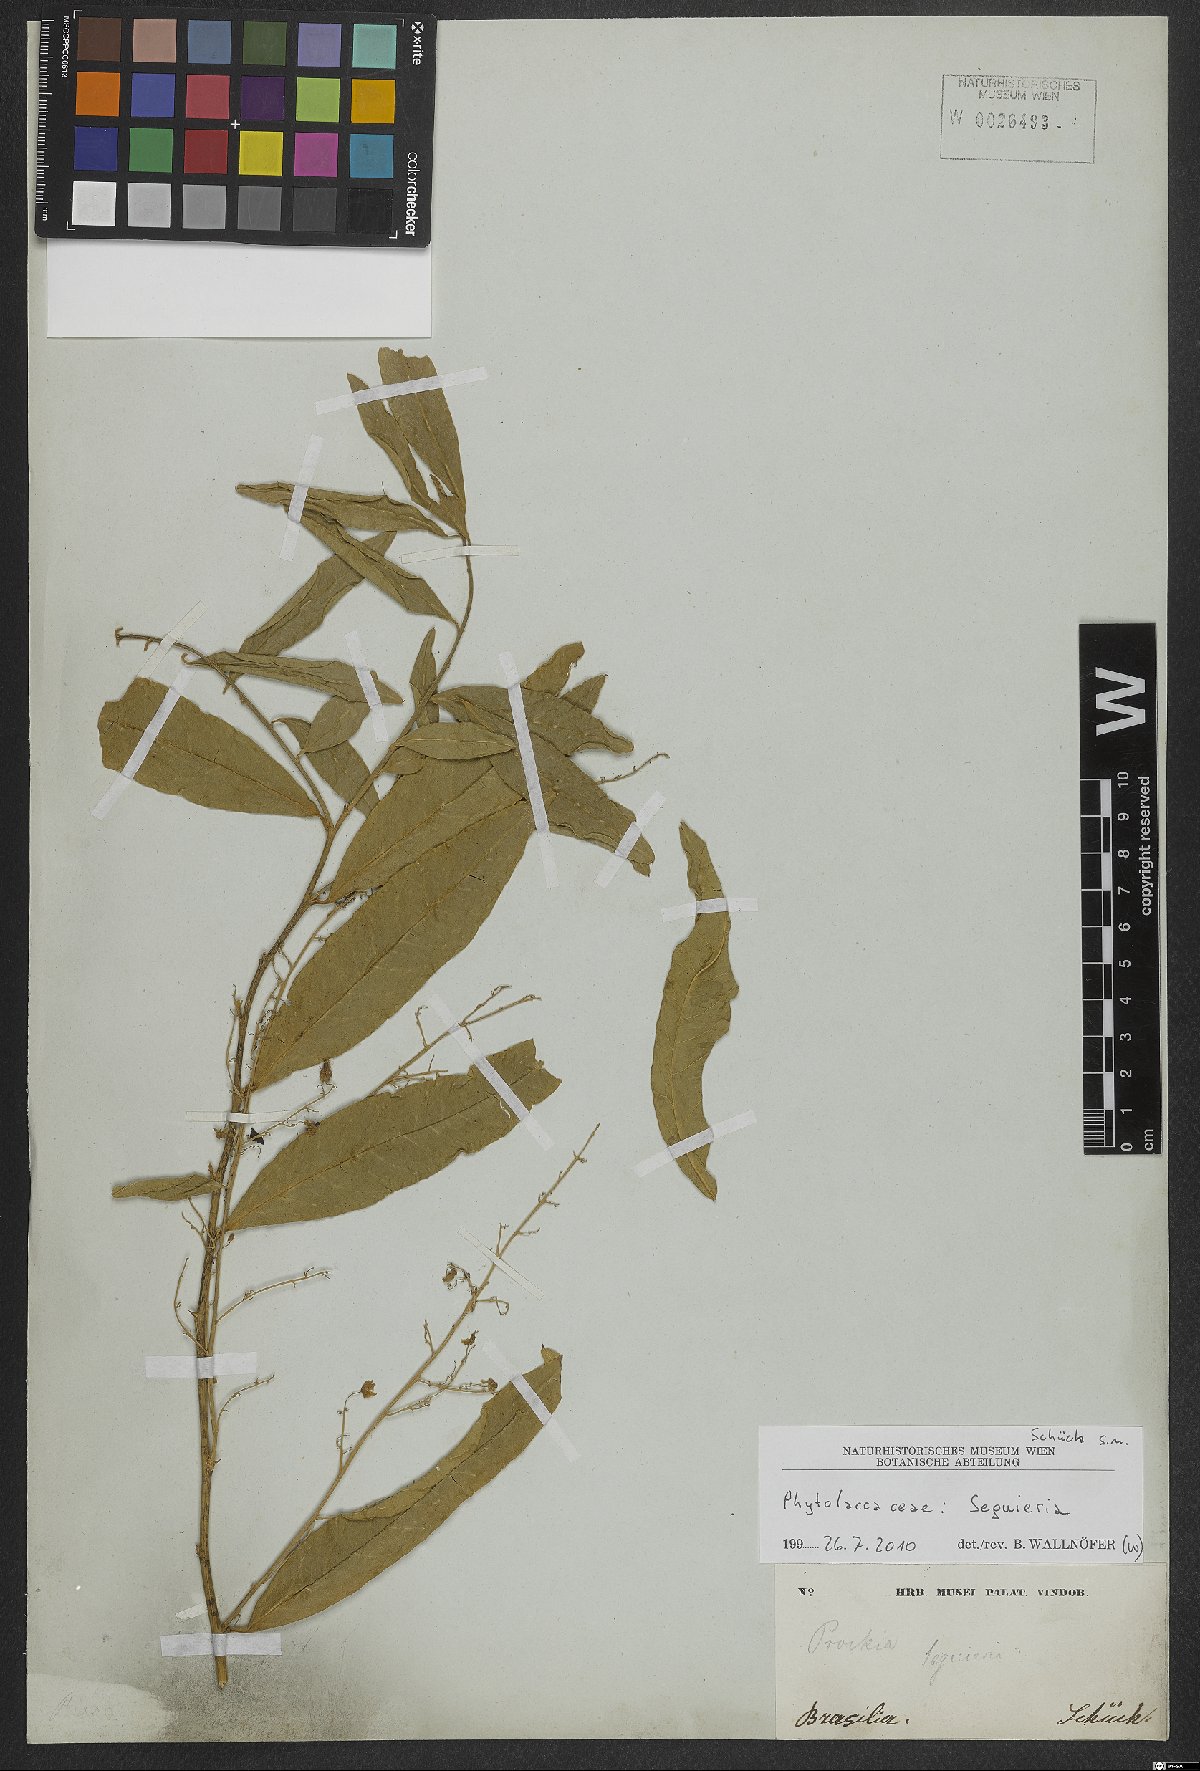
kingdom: Plantae
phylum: Tracheophyta
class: Magnoliopsida
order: Caryophyllales
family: Phytolaccaceae
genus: Seguieria
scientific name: Seguieria
